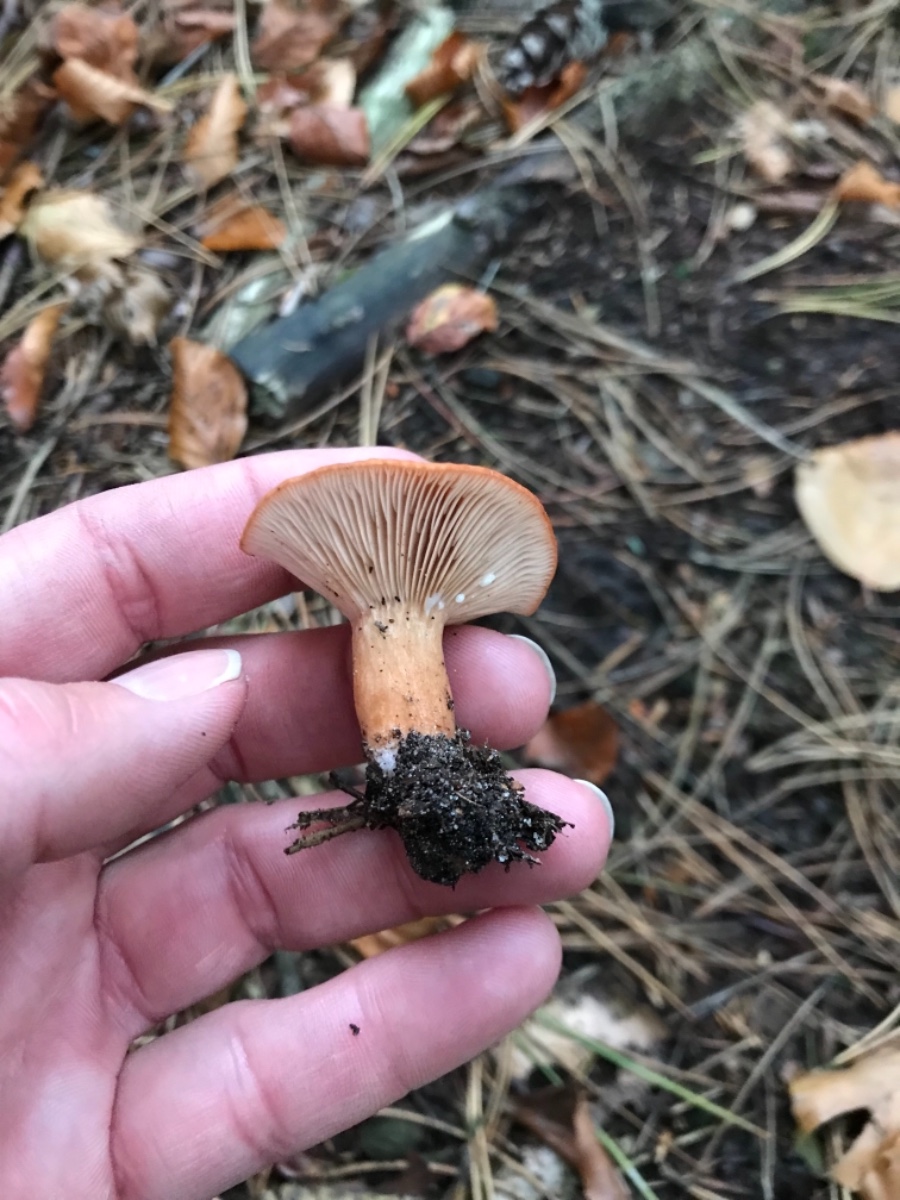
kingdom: Fungi
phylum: Basidiomycota
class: Agaricomycetes
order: Russulales
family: Russulaceae
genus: Lactarius
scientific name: Lactarius subdulcis
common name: sødlig mælkehat
